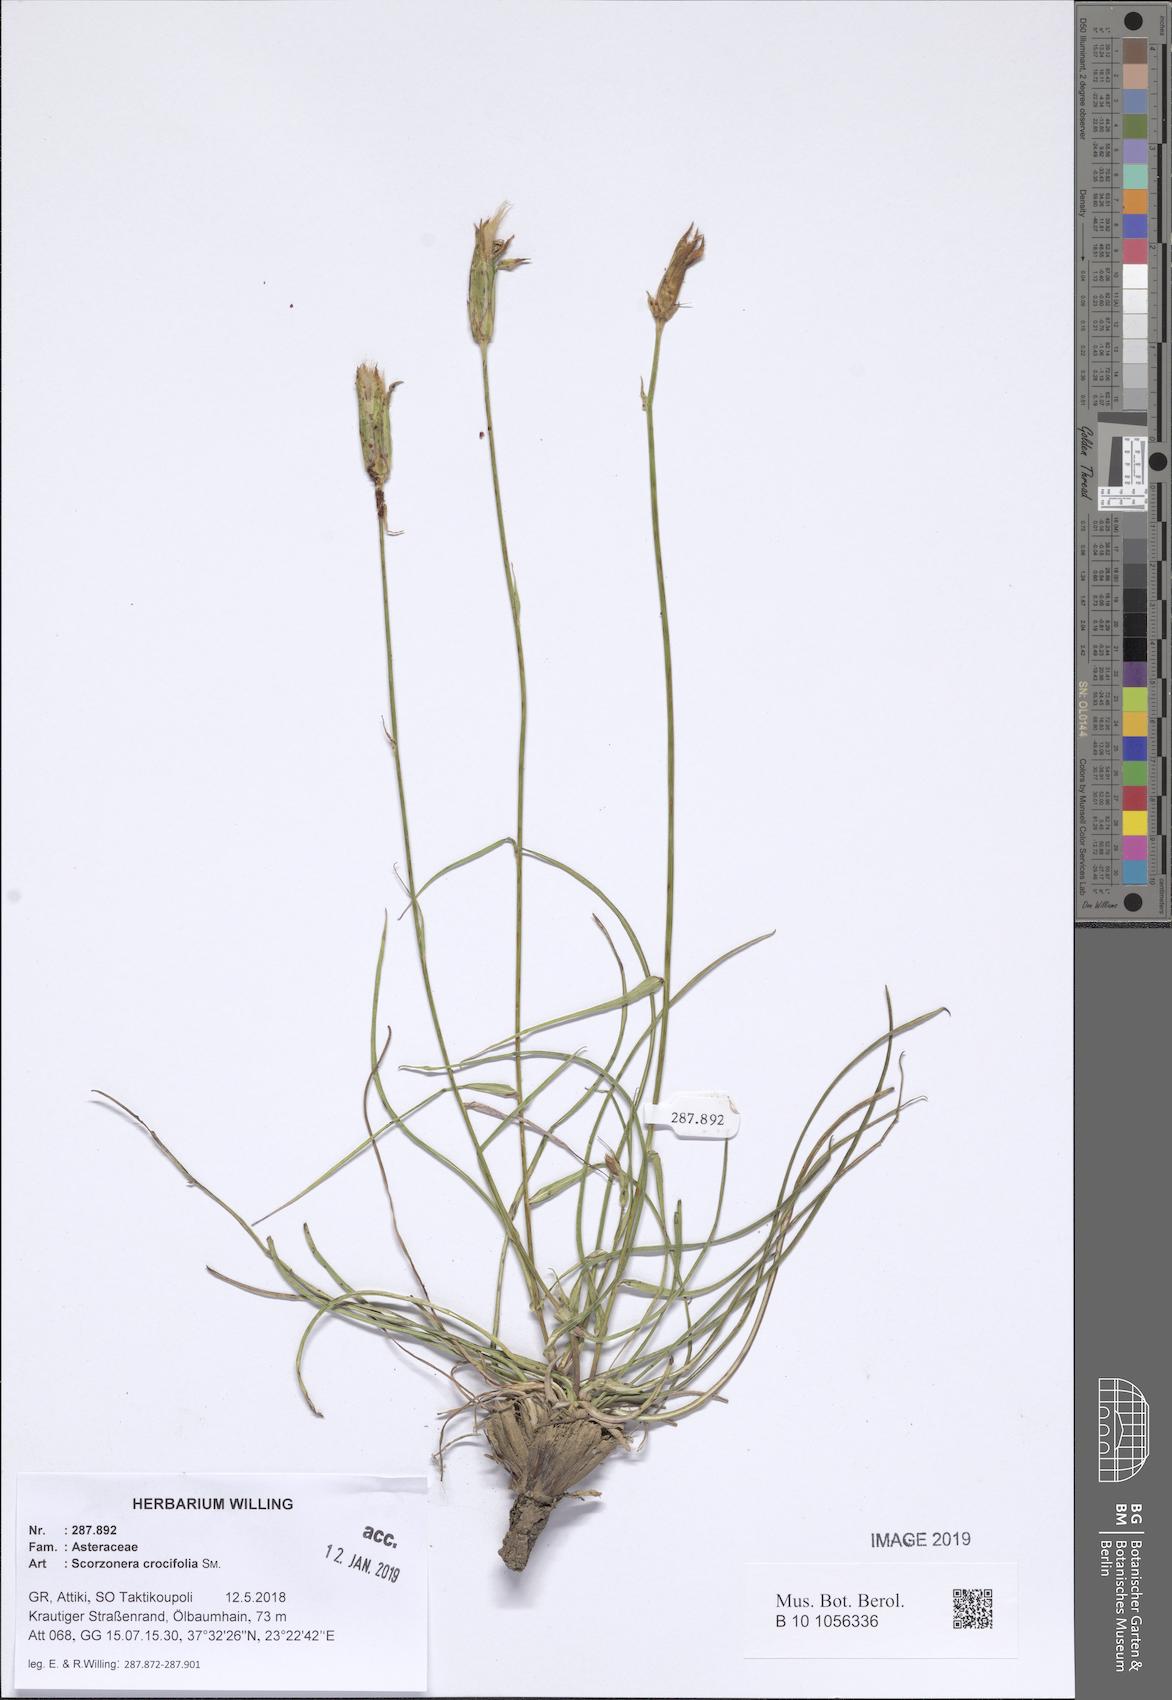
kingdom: Plantae
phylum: Tracheophyta
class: Magnoliopsida
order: Asterales
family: Asteraceae
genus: Pseudopodospermum
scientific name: Pseudopodospermum crocifolium
